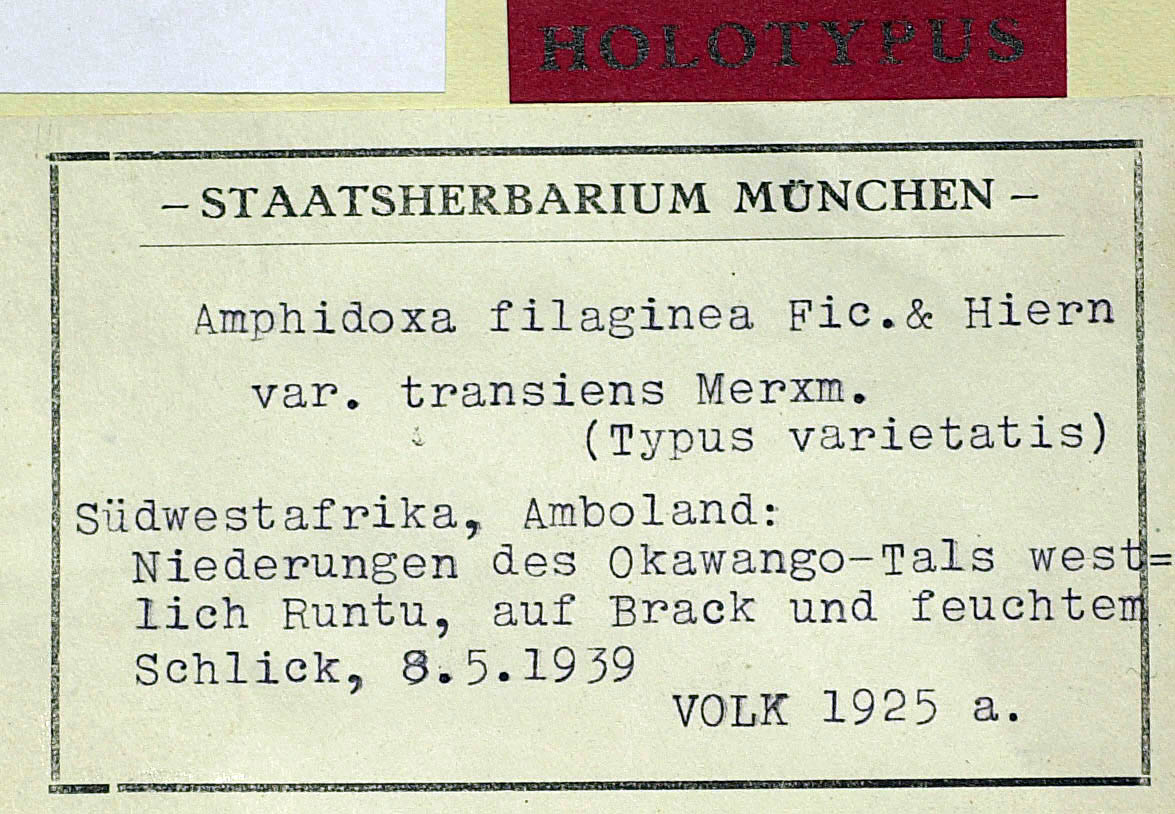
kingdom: Plantae
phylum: Tracheophyta
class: Magnoliopsida
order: Asterales
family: Asteraceae
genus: Gnaphalium
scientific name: Gnaphalium filagopsis
